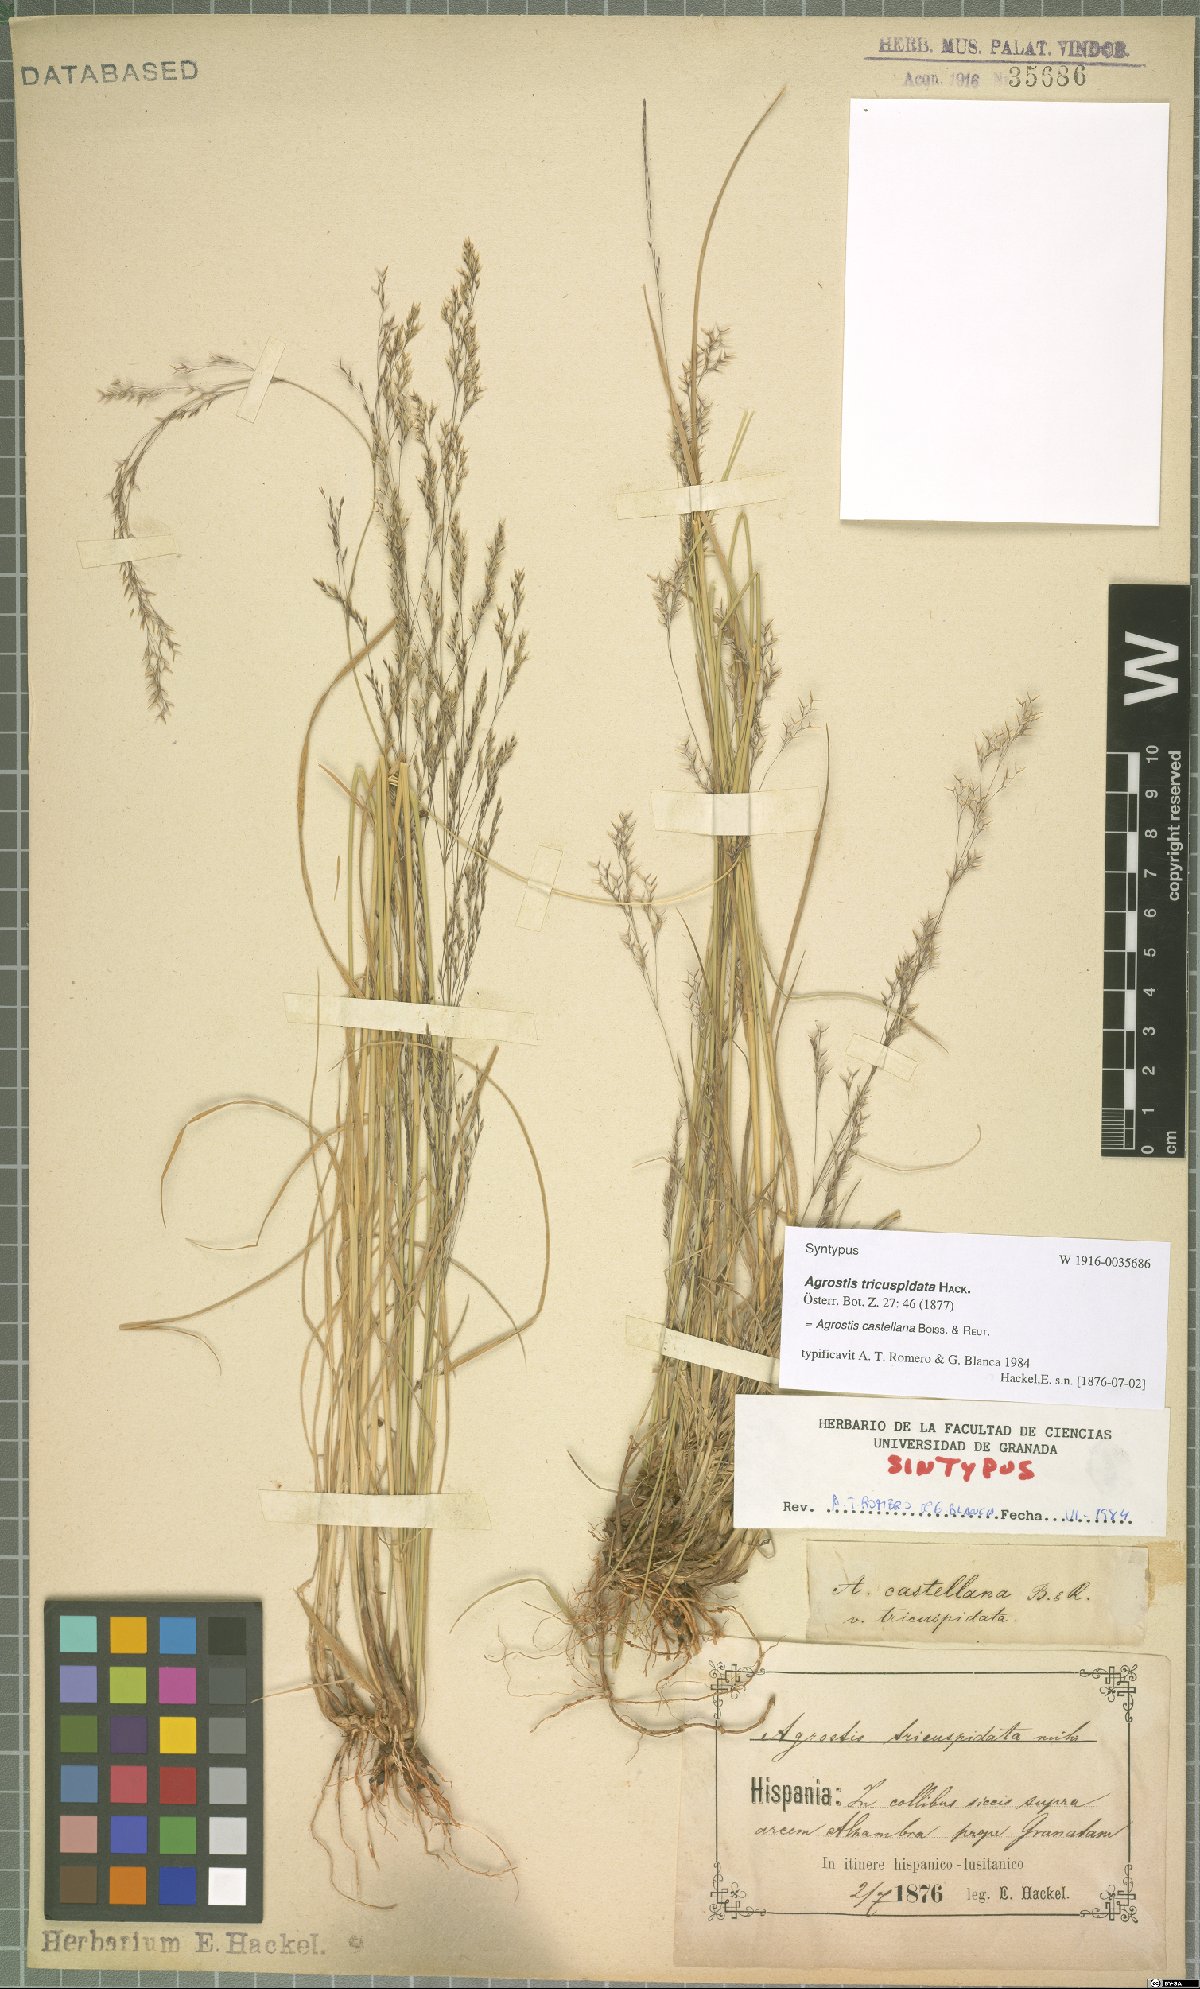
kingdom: Plantae
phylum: Tracheophyta
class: Liliopsida
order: Poales
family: Poaceae
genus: Agrostis
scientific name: Agrostis castellana
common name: Highland bent
